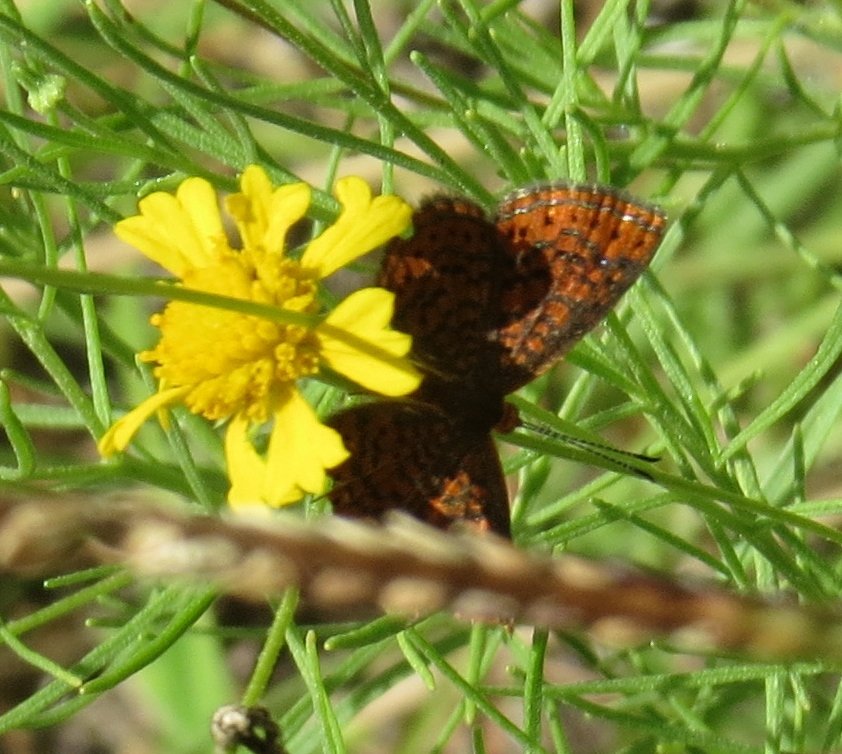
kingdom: Animalia
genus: Calephelis
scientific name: Calephelis virginiensis
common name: Little Metalmark
